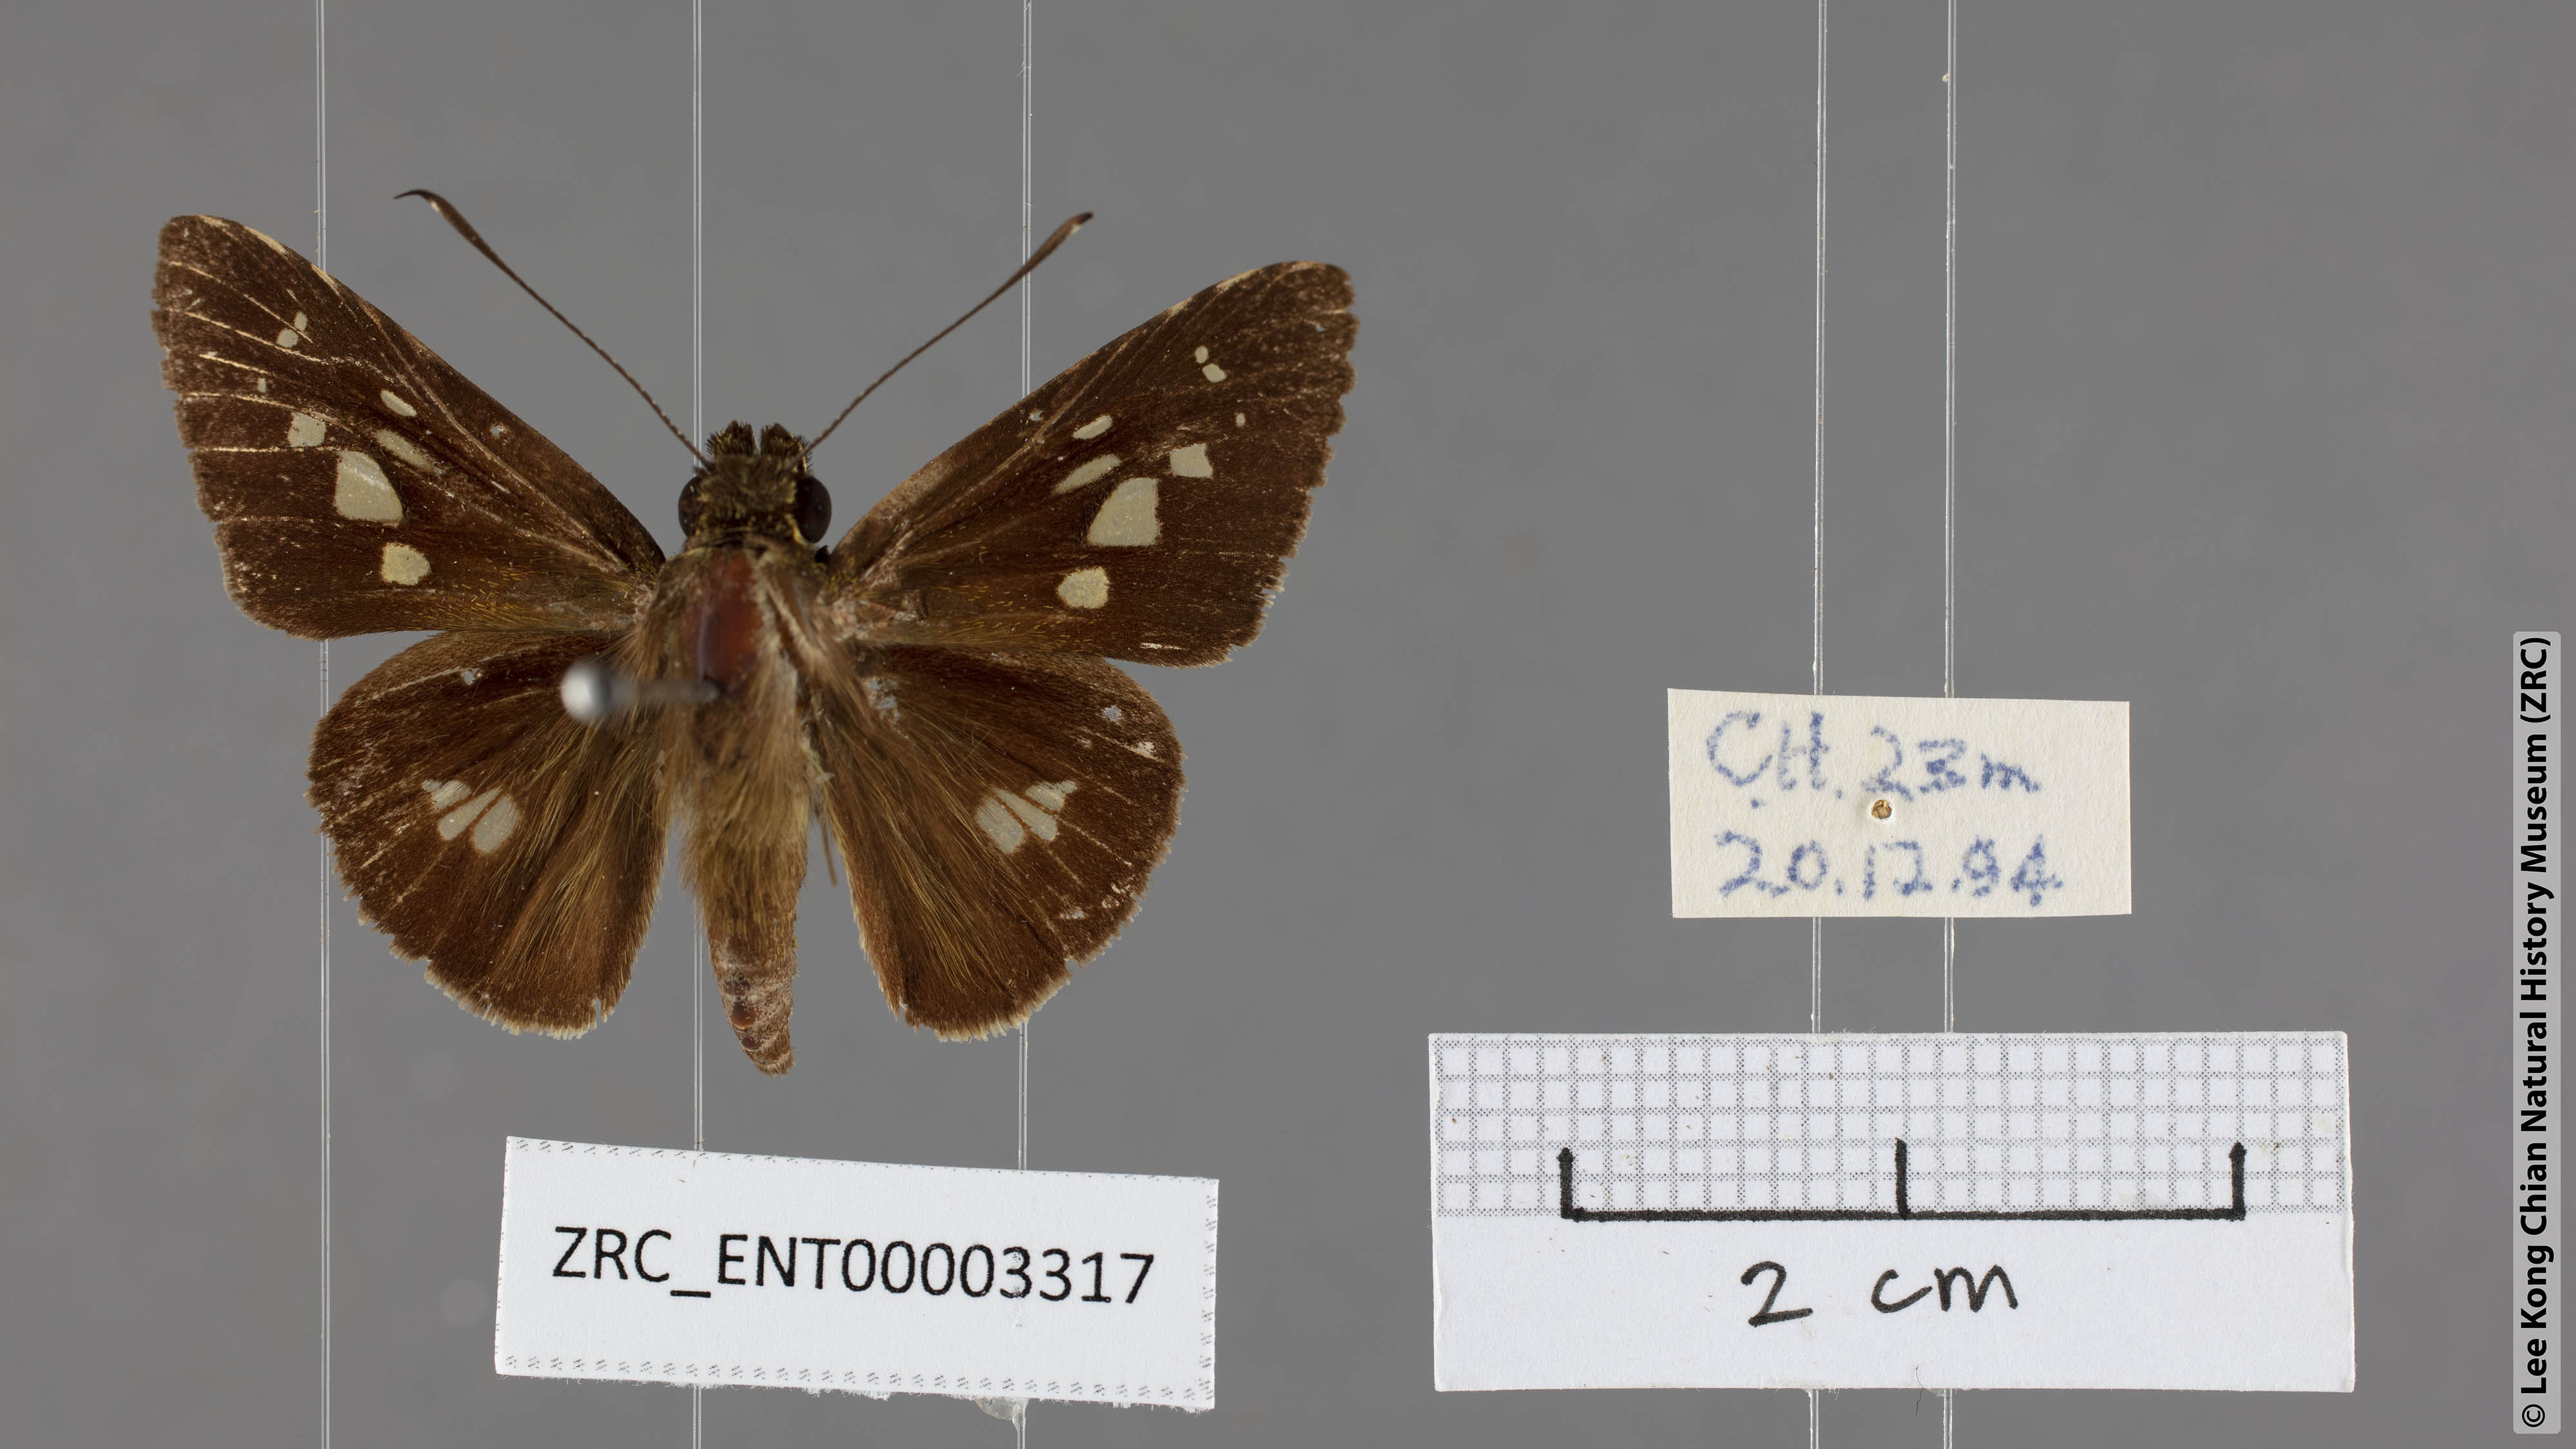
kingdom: Animalia
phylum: Arthropoda
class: Insecta
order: Lepidoptera
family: Hesperiidae
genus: Isma
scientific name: Isma umbrosa
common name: Large long-banded flitter
